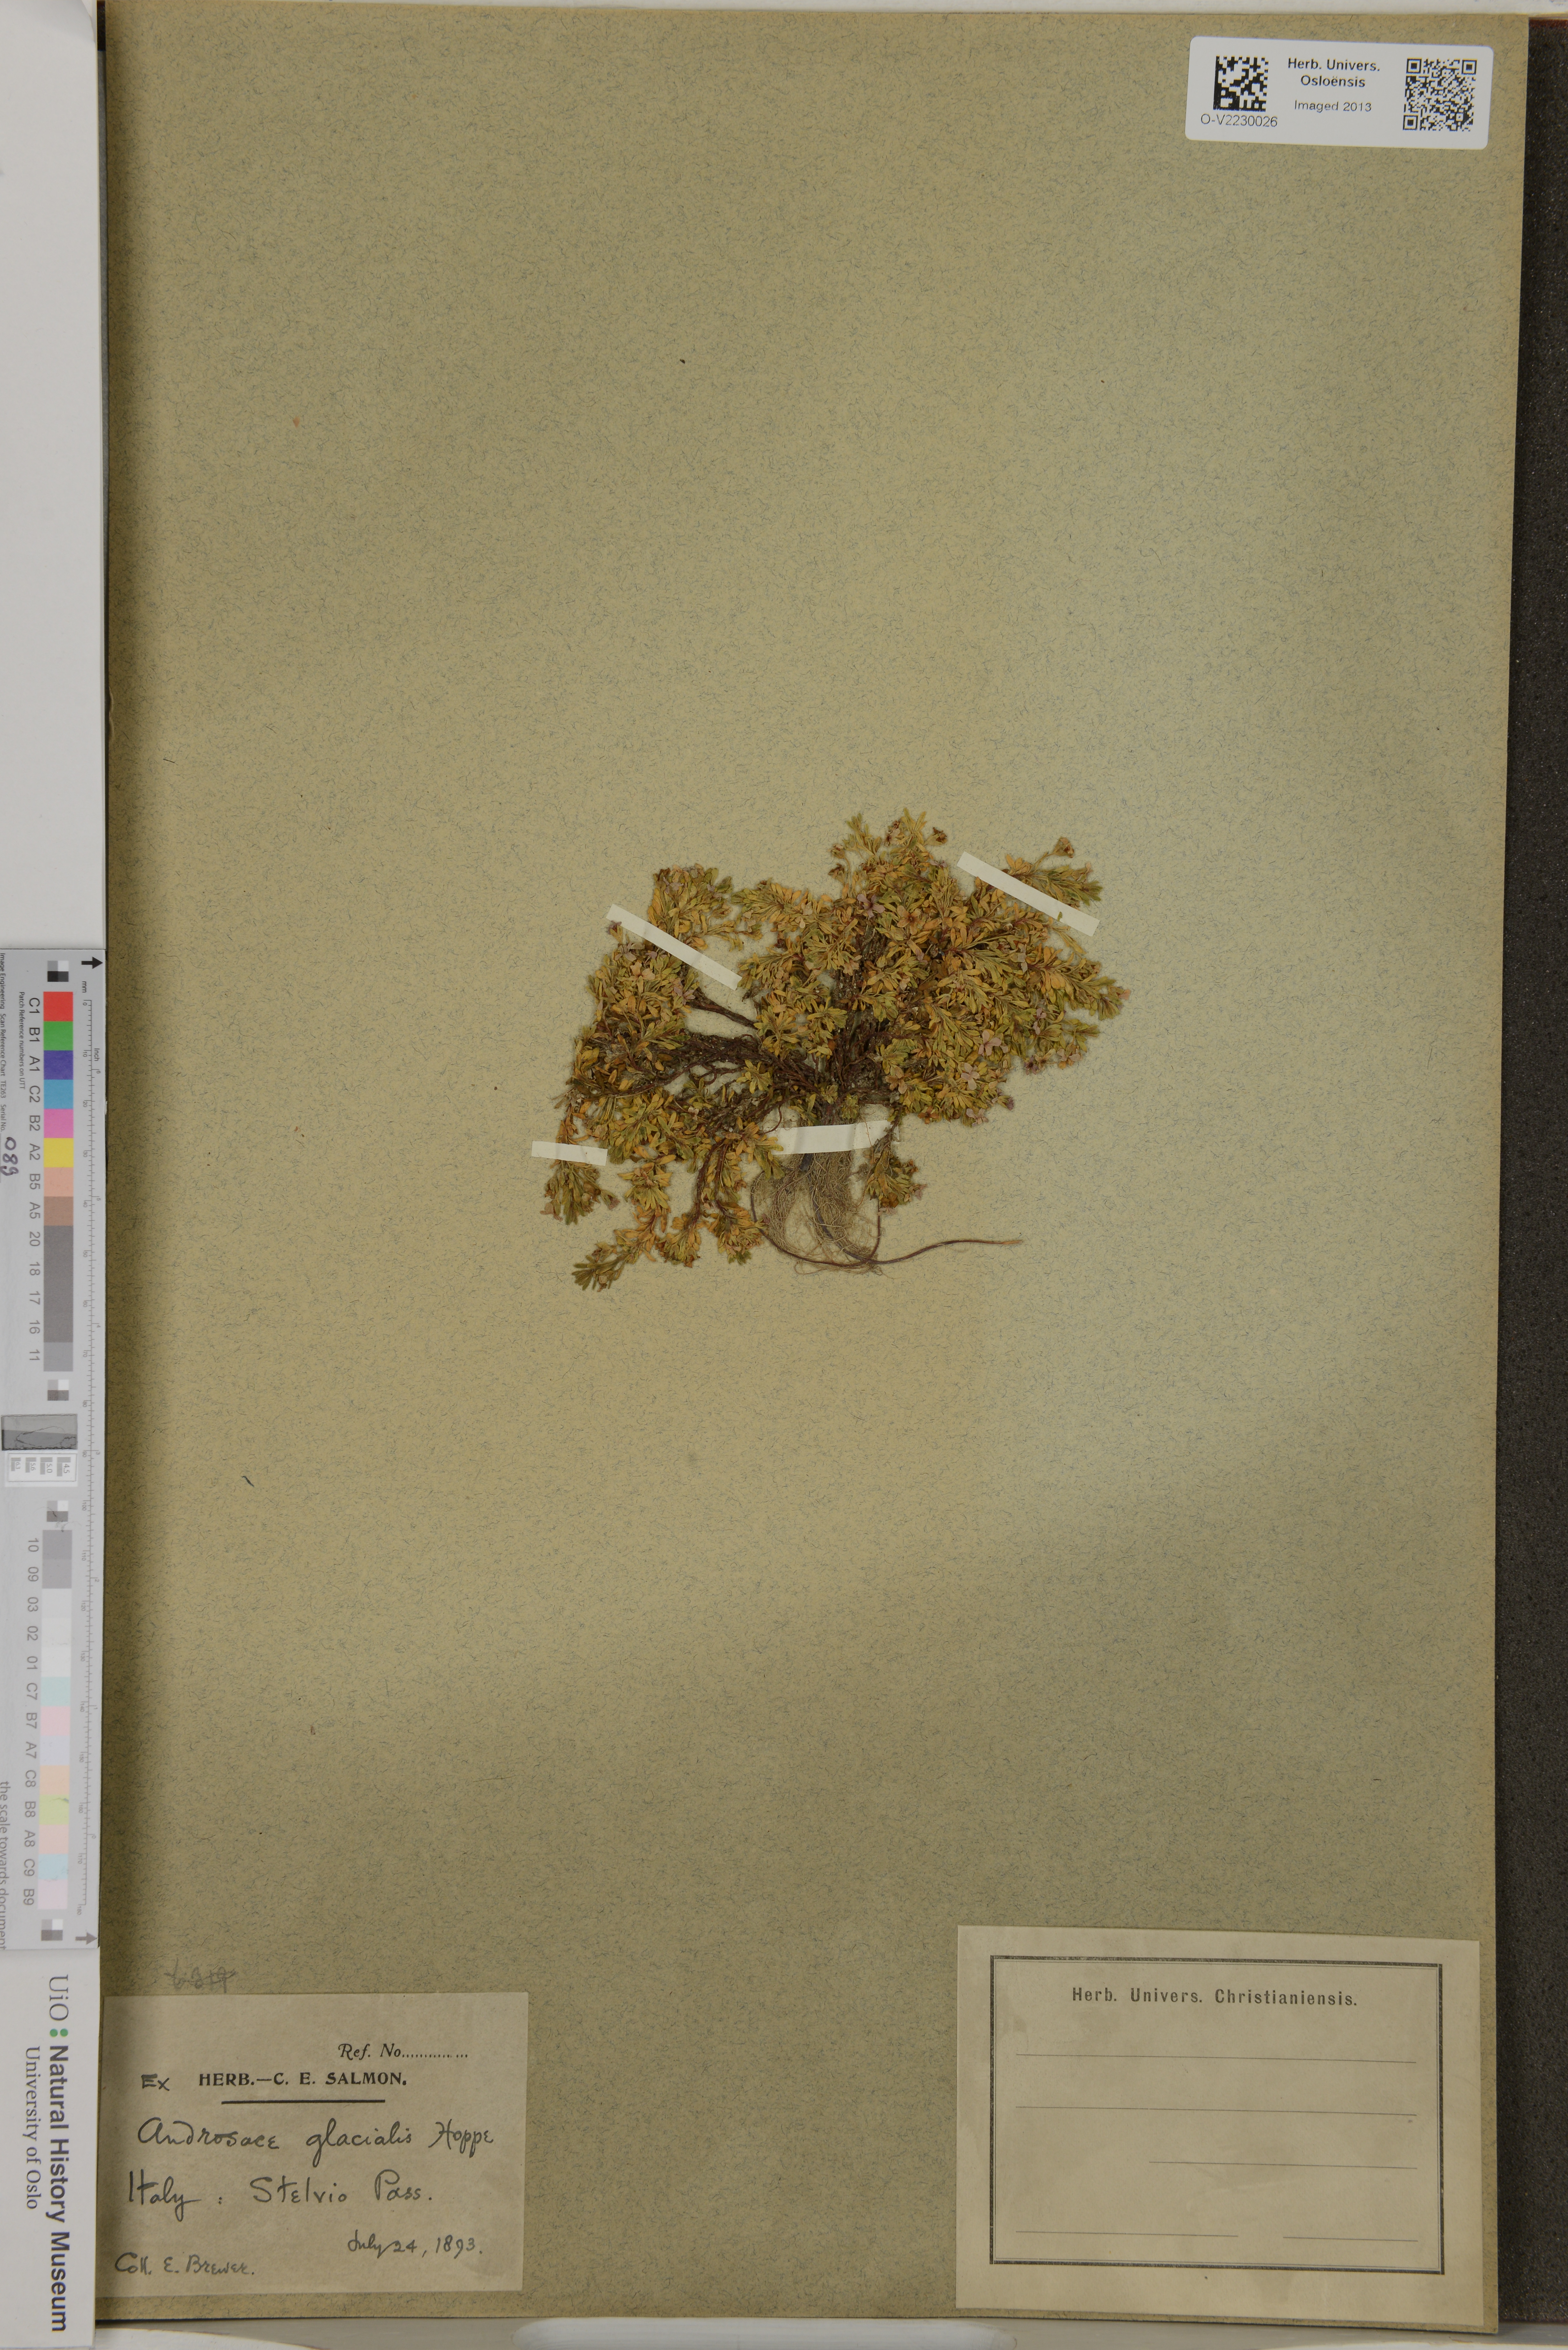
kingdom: Plantae
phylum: Tracheophyta
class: Magnoliopsida
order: Ericales
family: Primulaceae
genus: Androsace
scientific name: Androsace alpina
